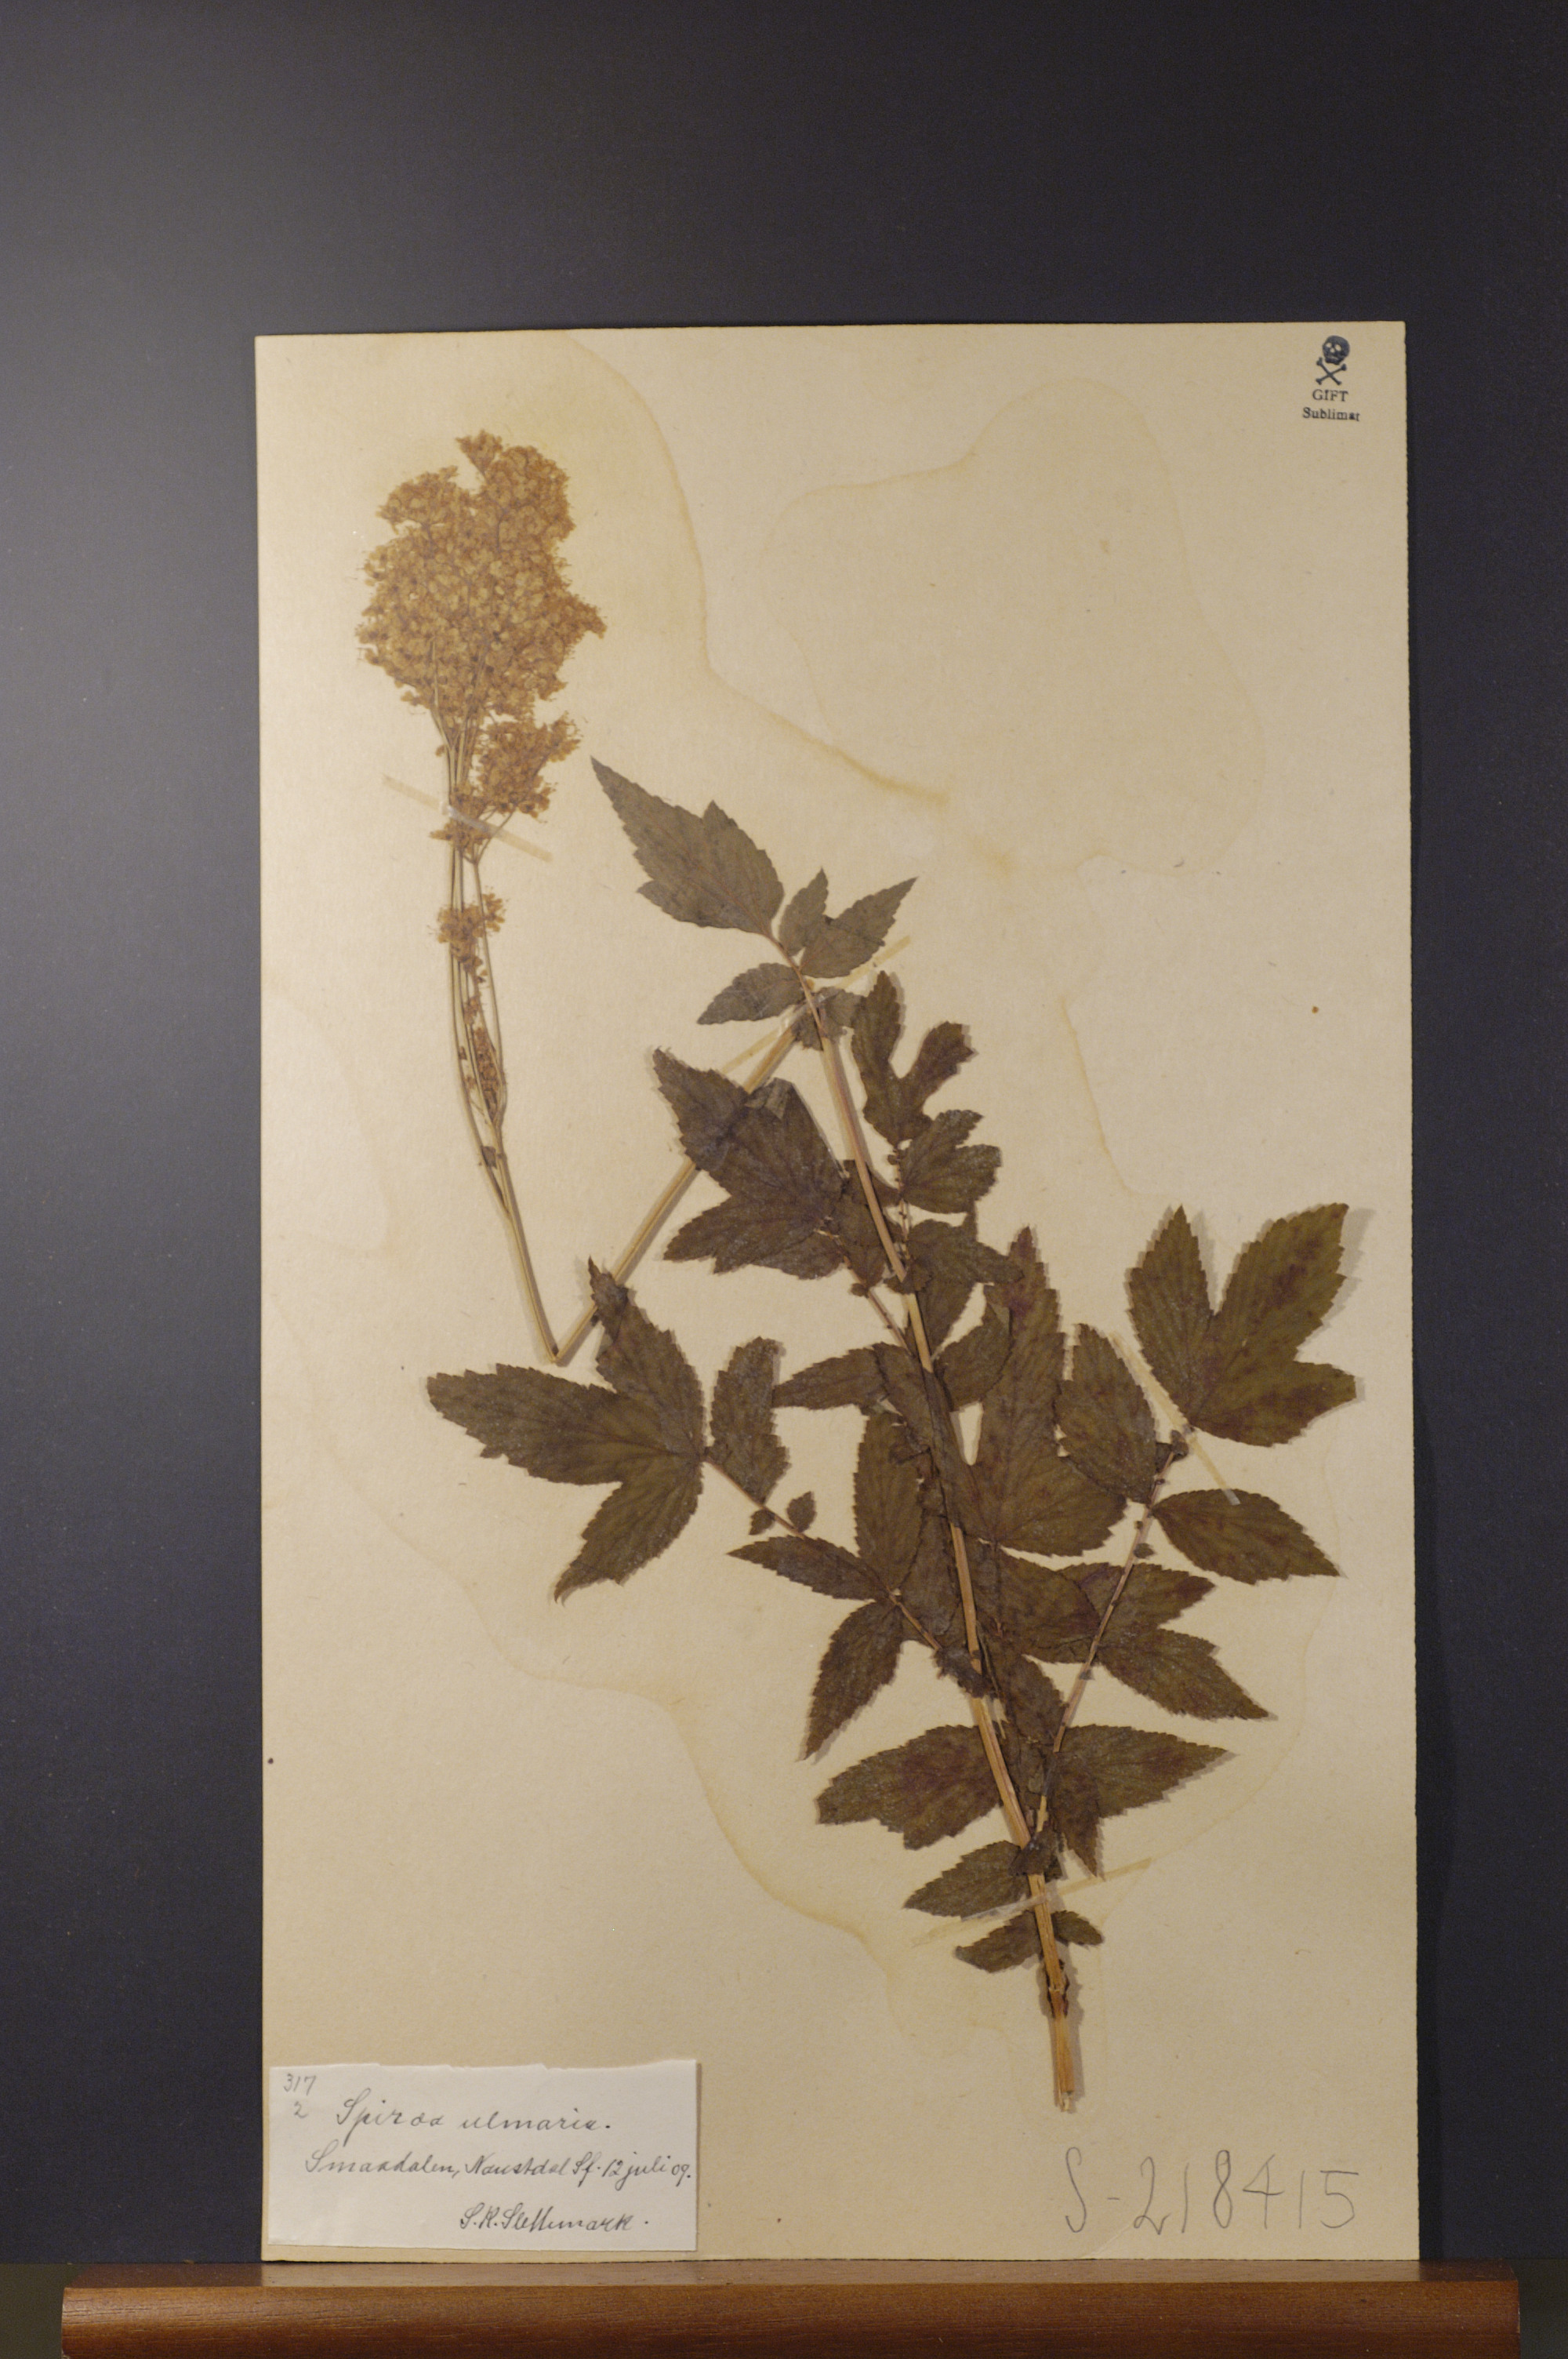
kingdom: Plantae
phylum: Tracheophyta
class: Magnoliopsida
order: Rosales
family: Rosaceae
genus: Filipendula
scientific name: Filipendula ulmaria
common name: Meadowsweet
